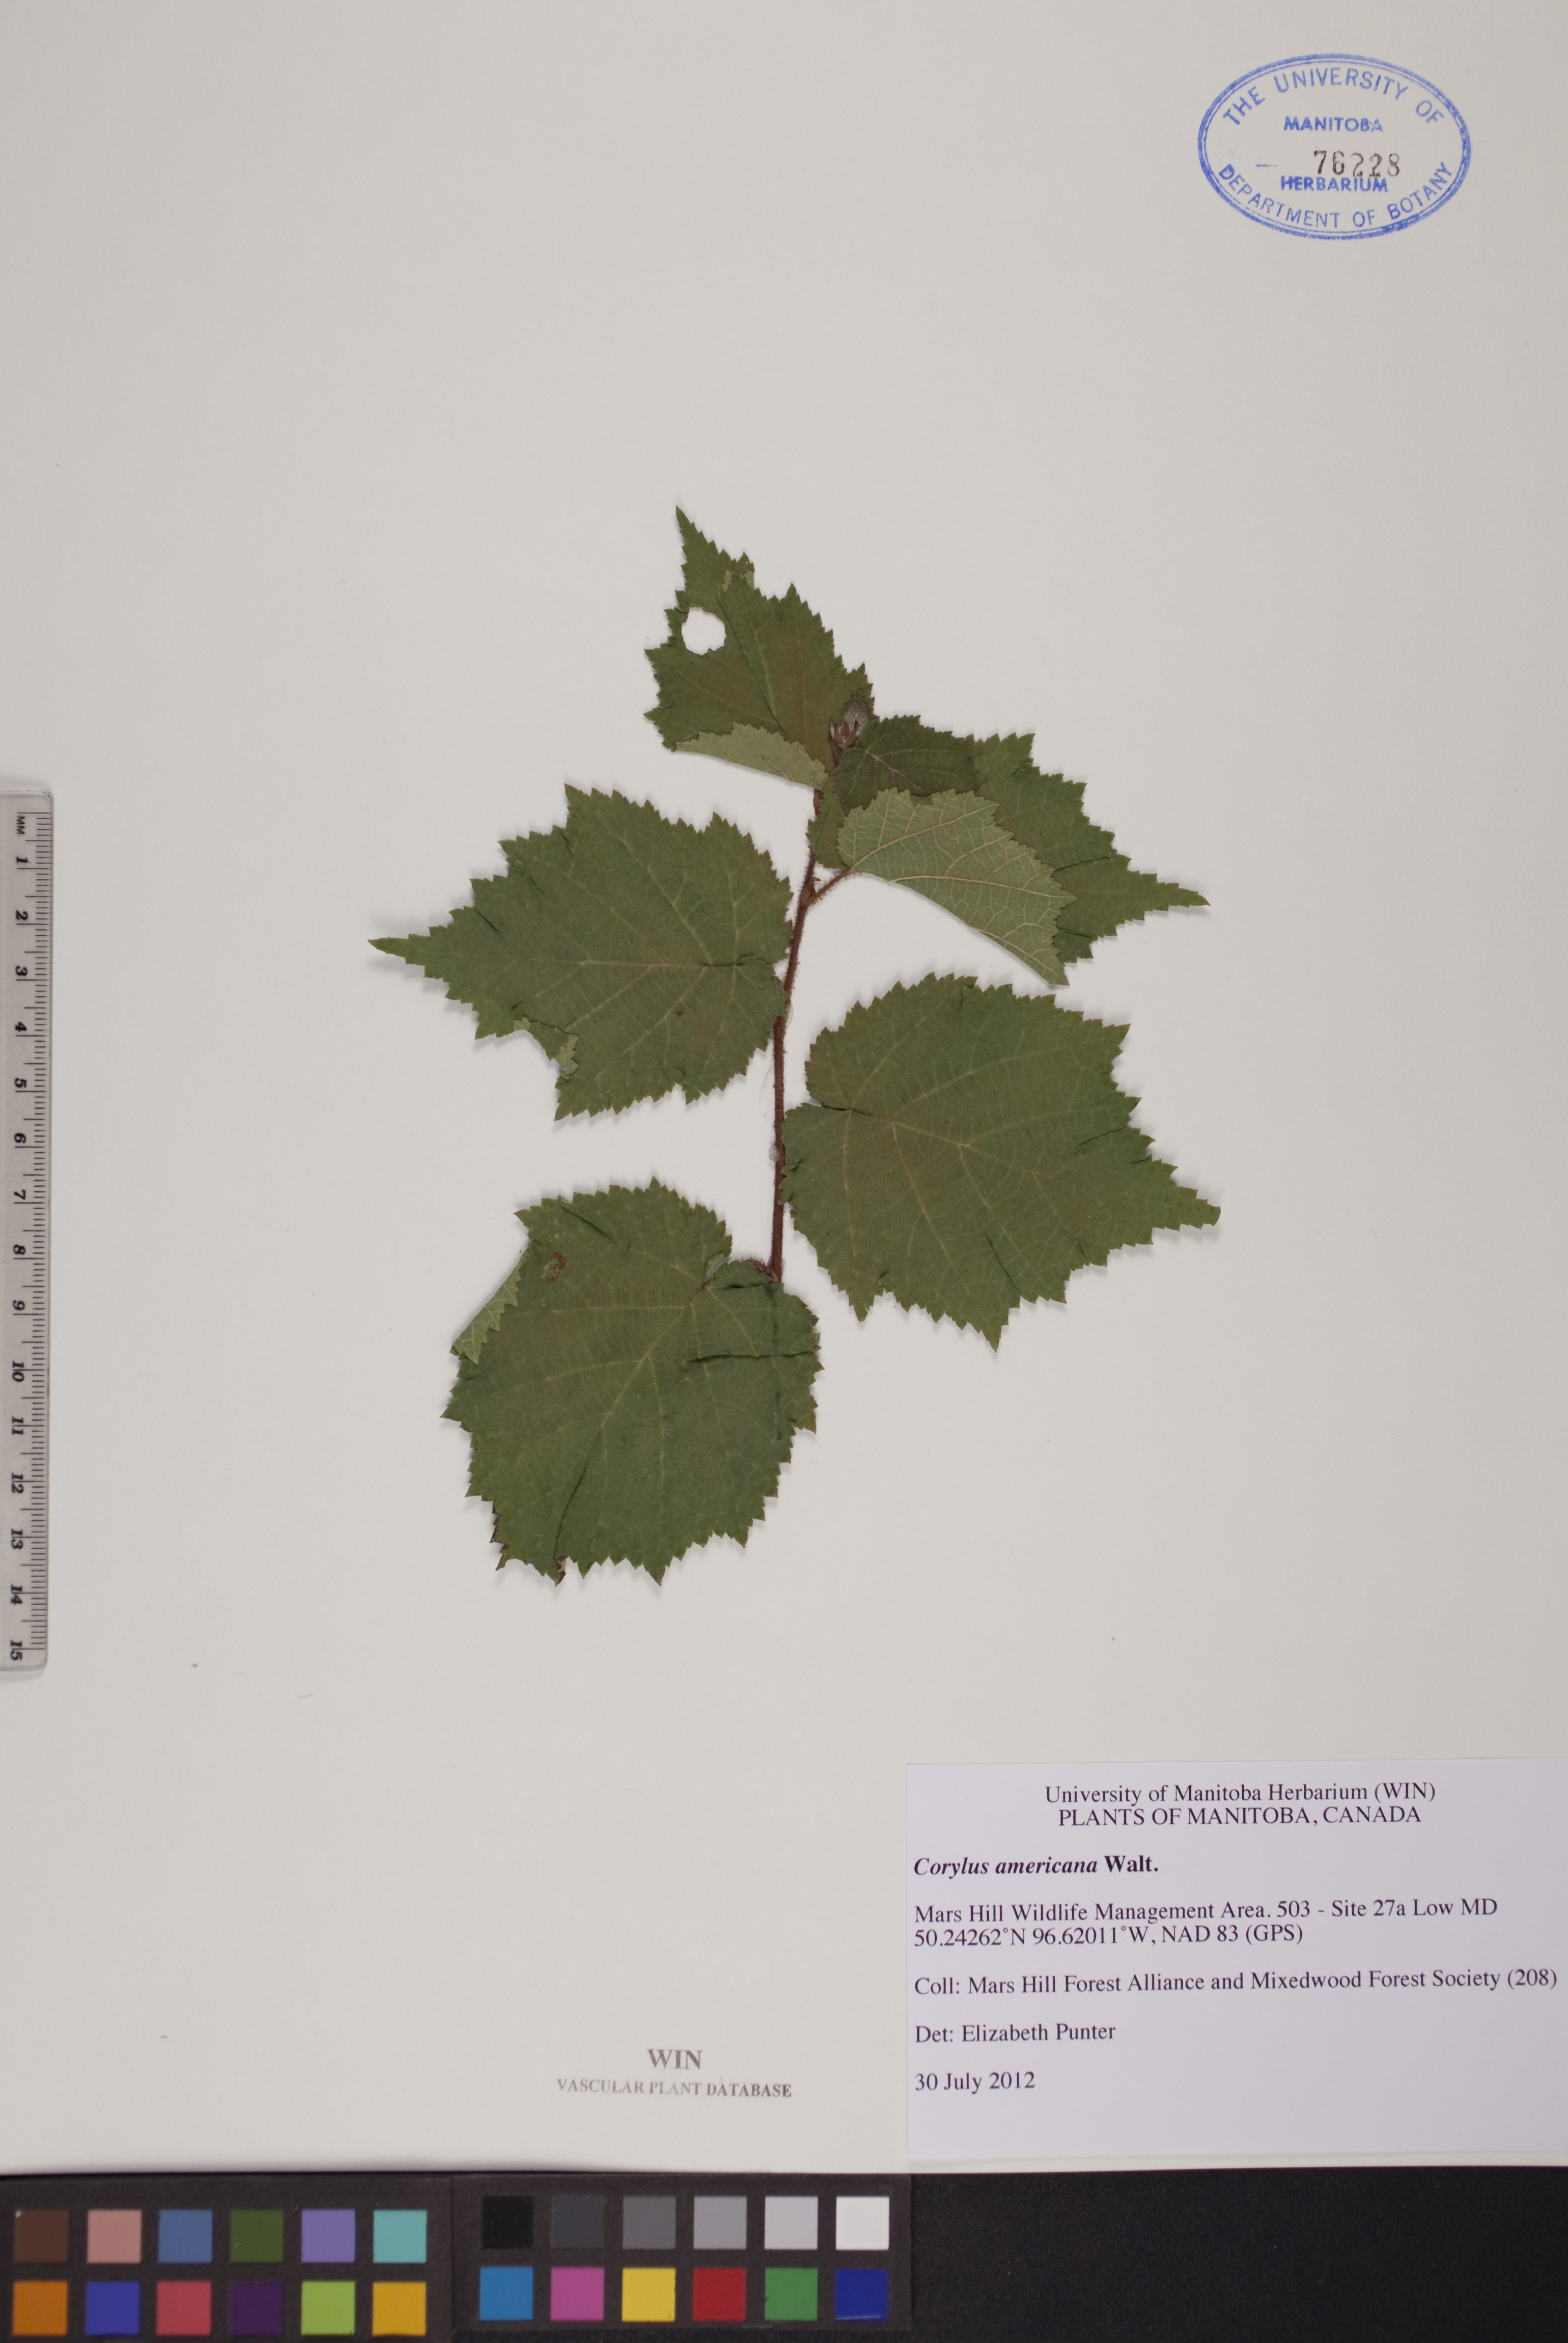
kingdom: Plantae
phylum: Tracheophyta
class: Magnoliopsida
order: Fagales
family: Betulaceae
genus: Corylus
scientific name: Corylus americana
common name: American hazel
